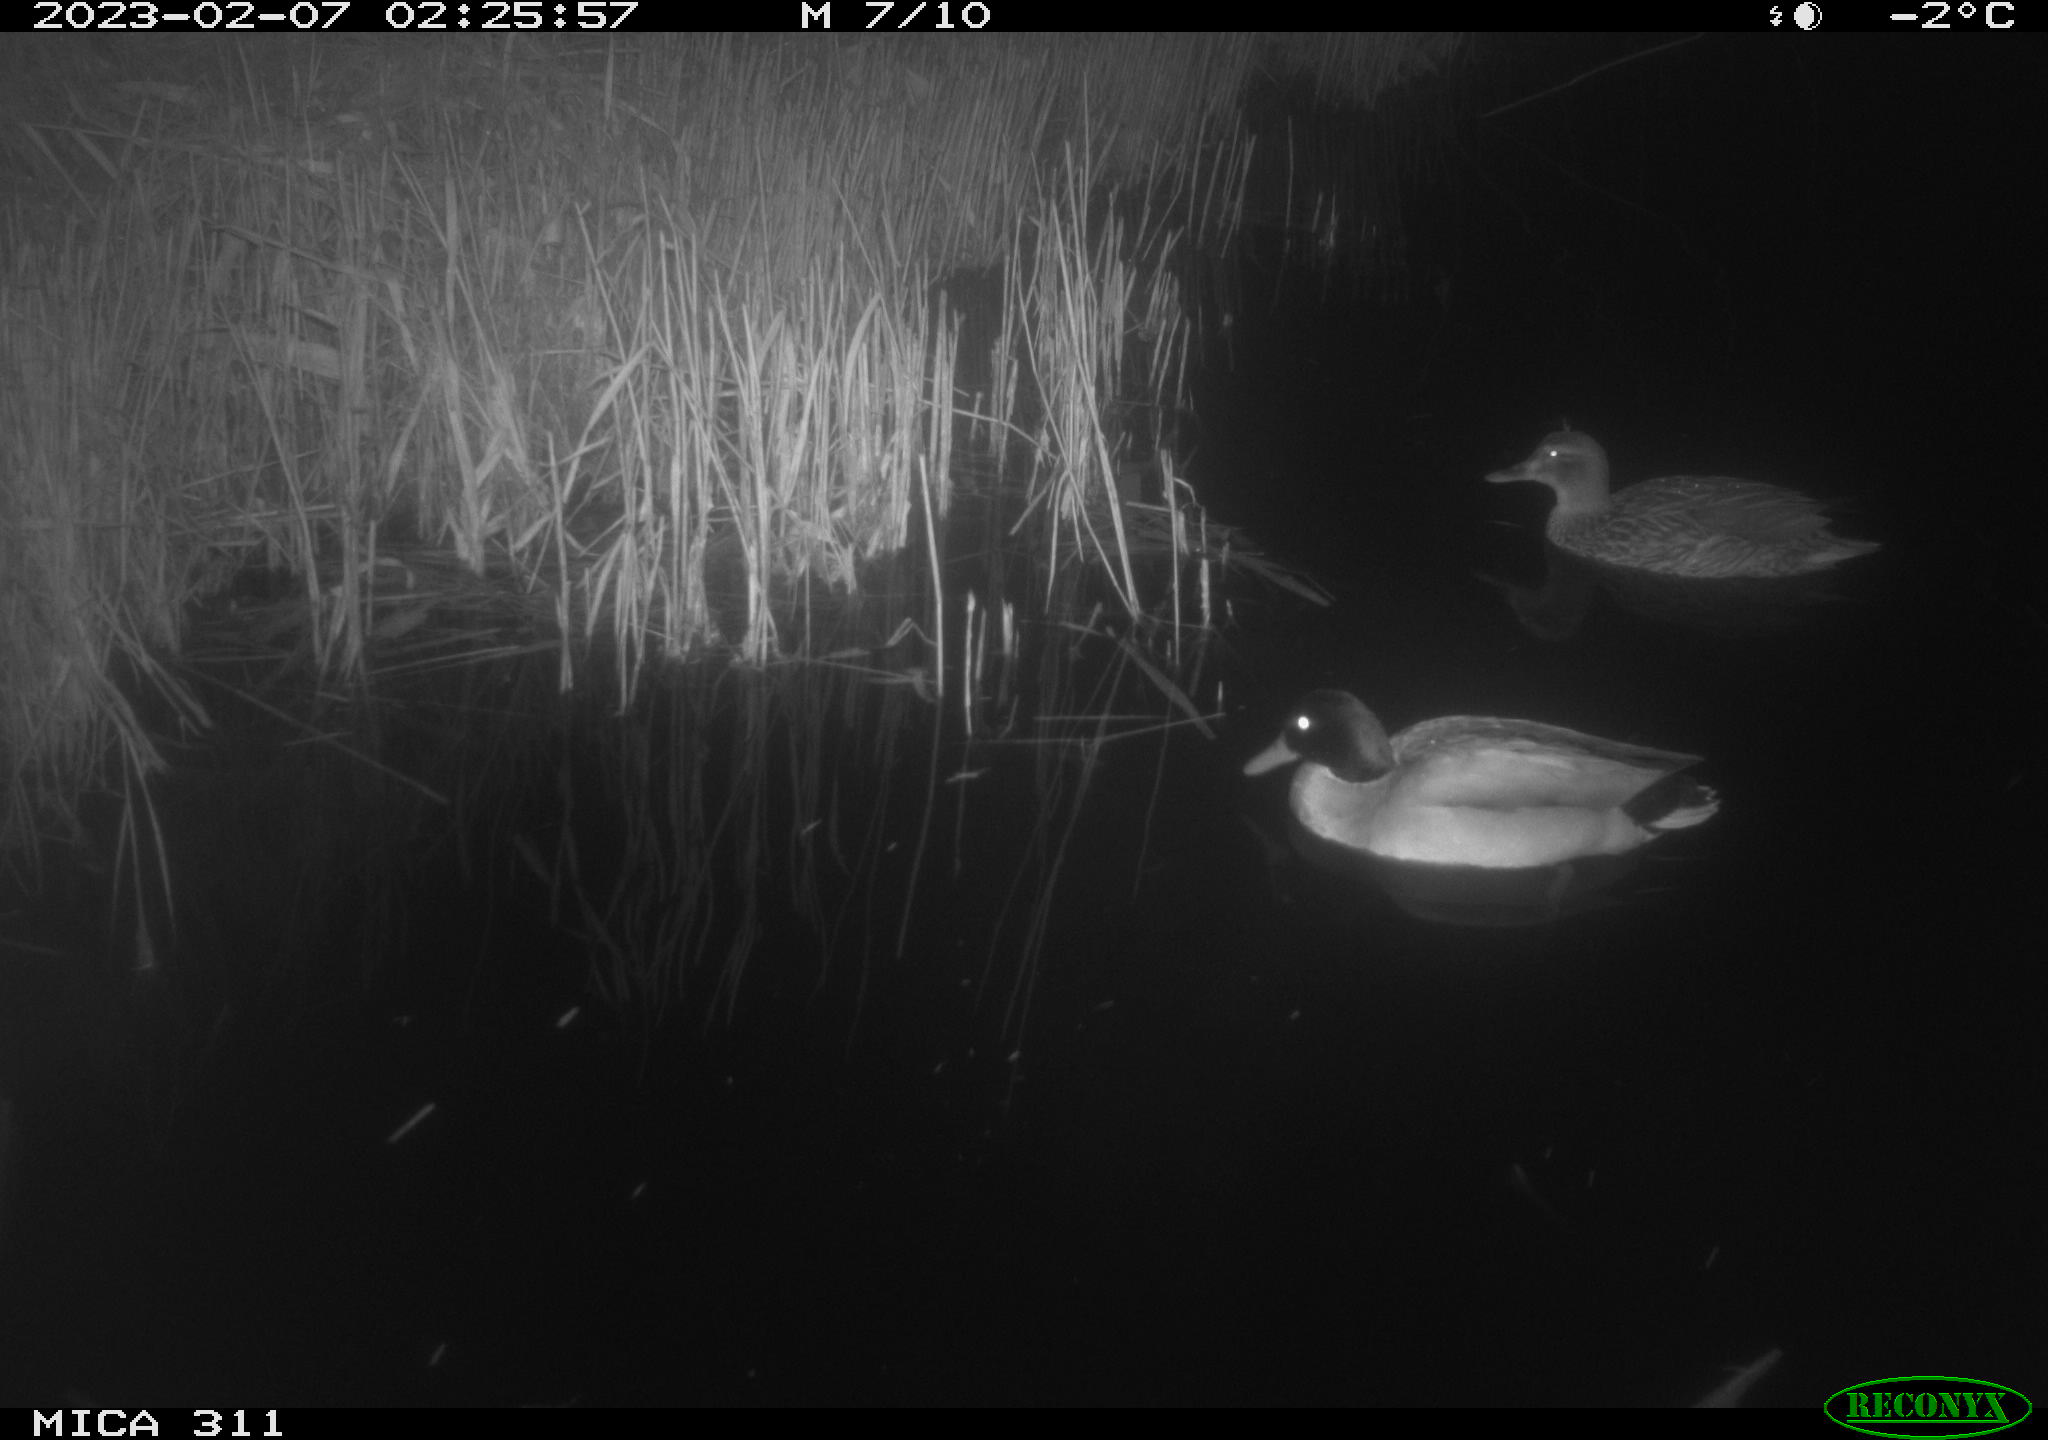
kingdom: Animalia
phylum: Chordata
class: Aves
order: Anseriformes
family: Anatidae
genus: Anas
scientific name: Anas platyrhynchos
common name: Mallard
